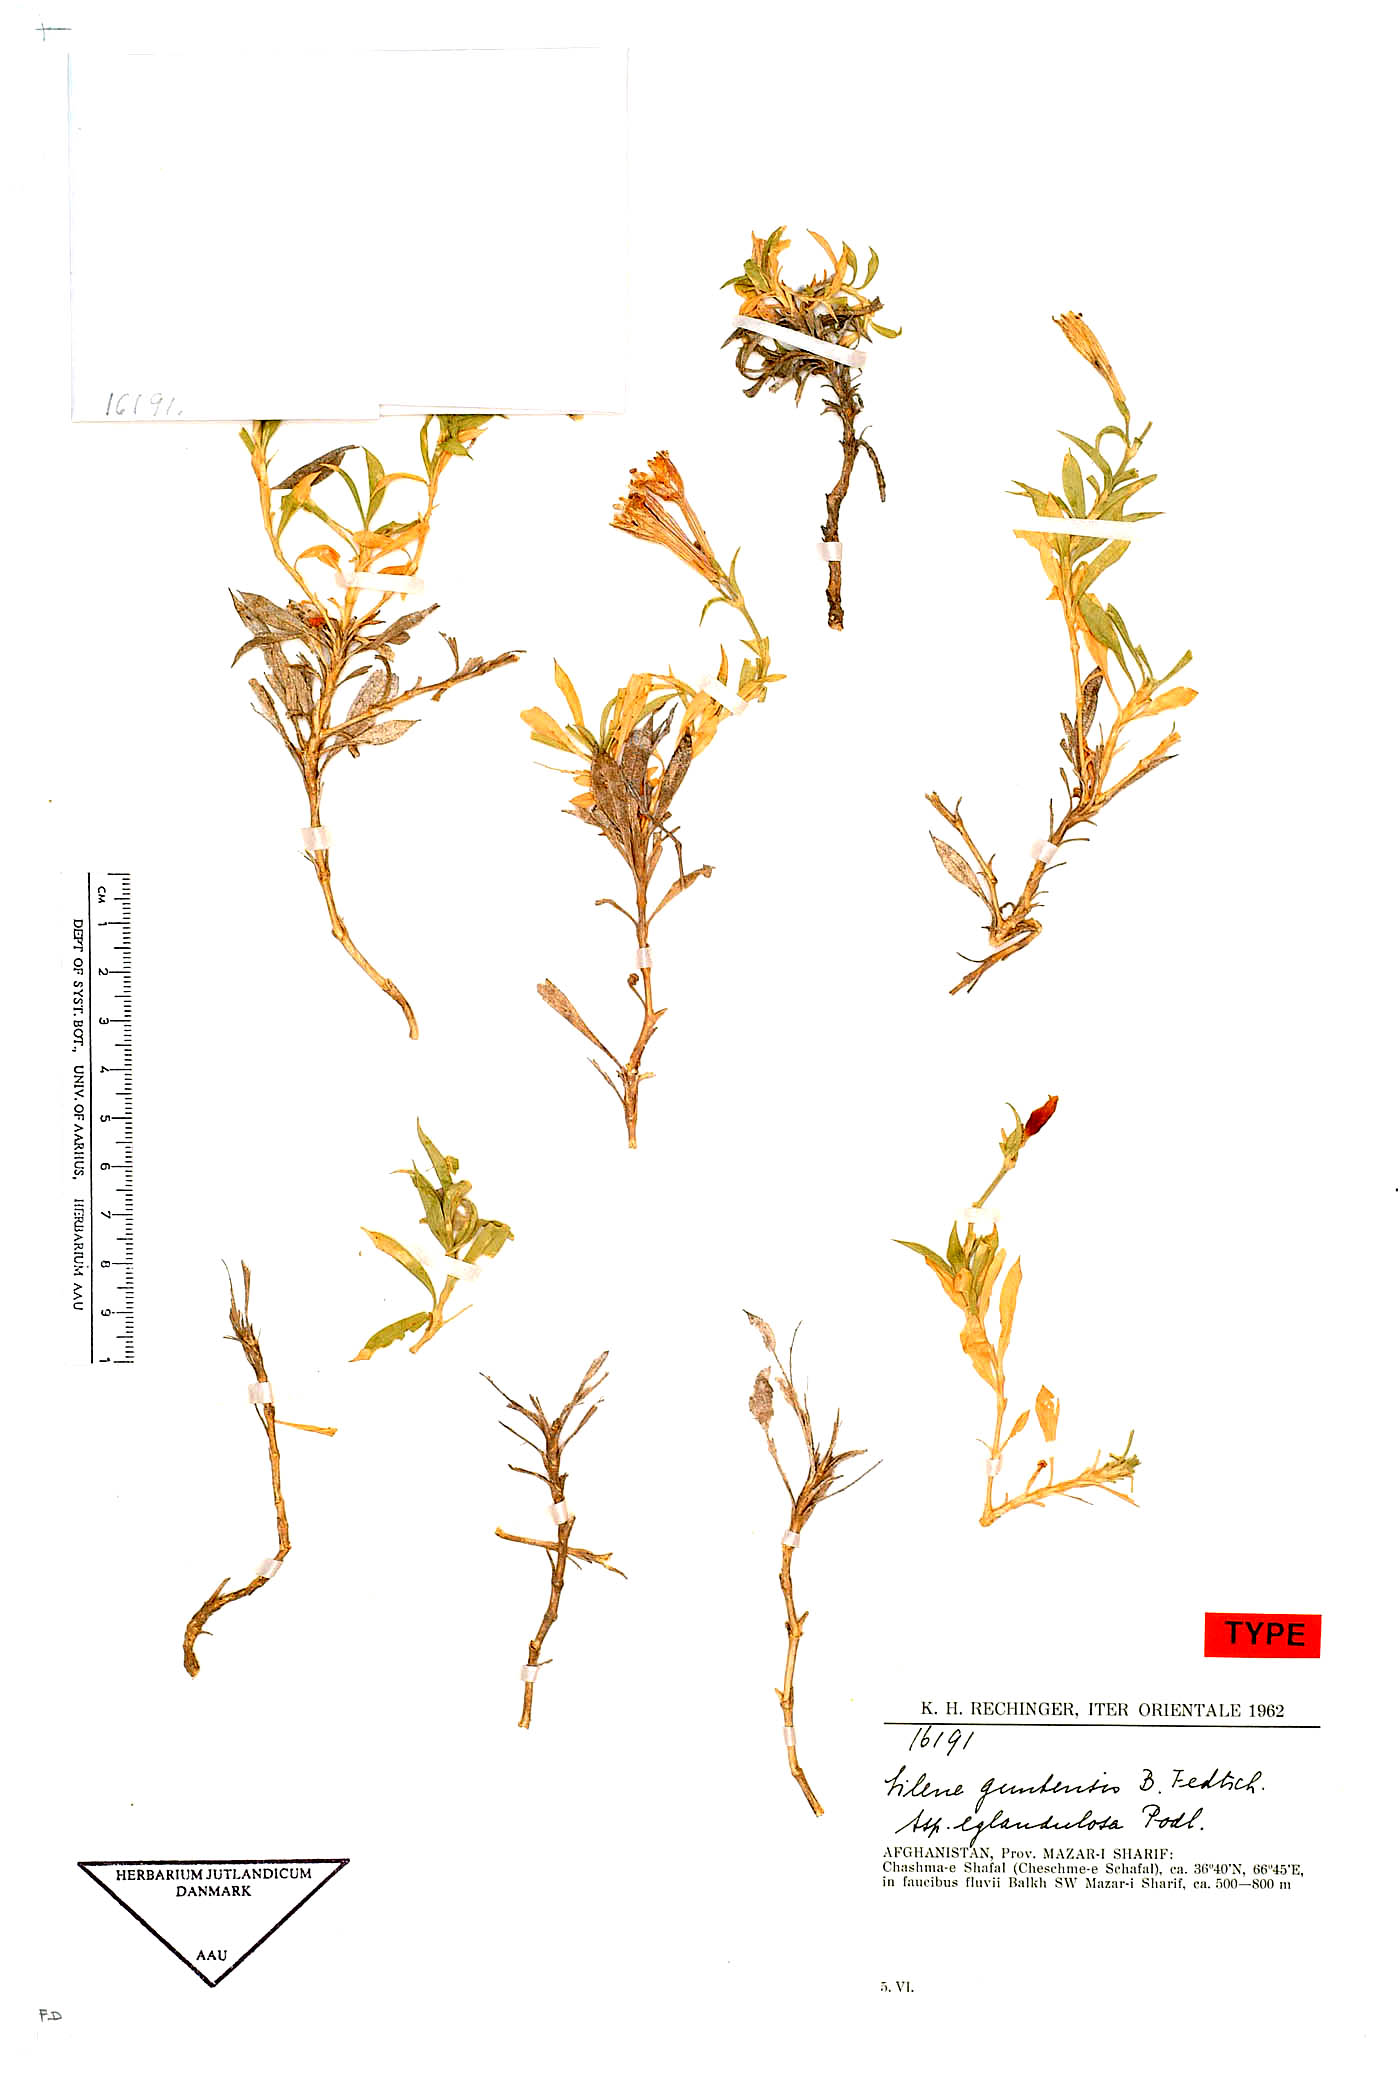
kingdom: Plantae
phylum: Tracheophyta
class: Magnoliopsida
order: Caryophyllales
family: Caryophyllaceae
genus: Silene
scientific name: Silene kuschakewiczii
